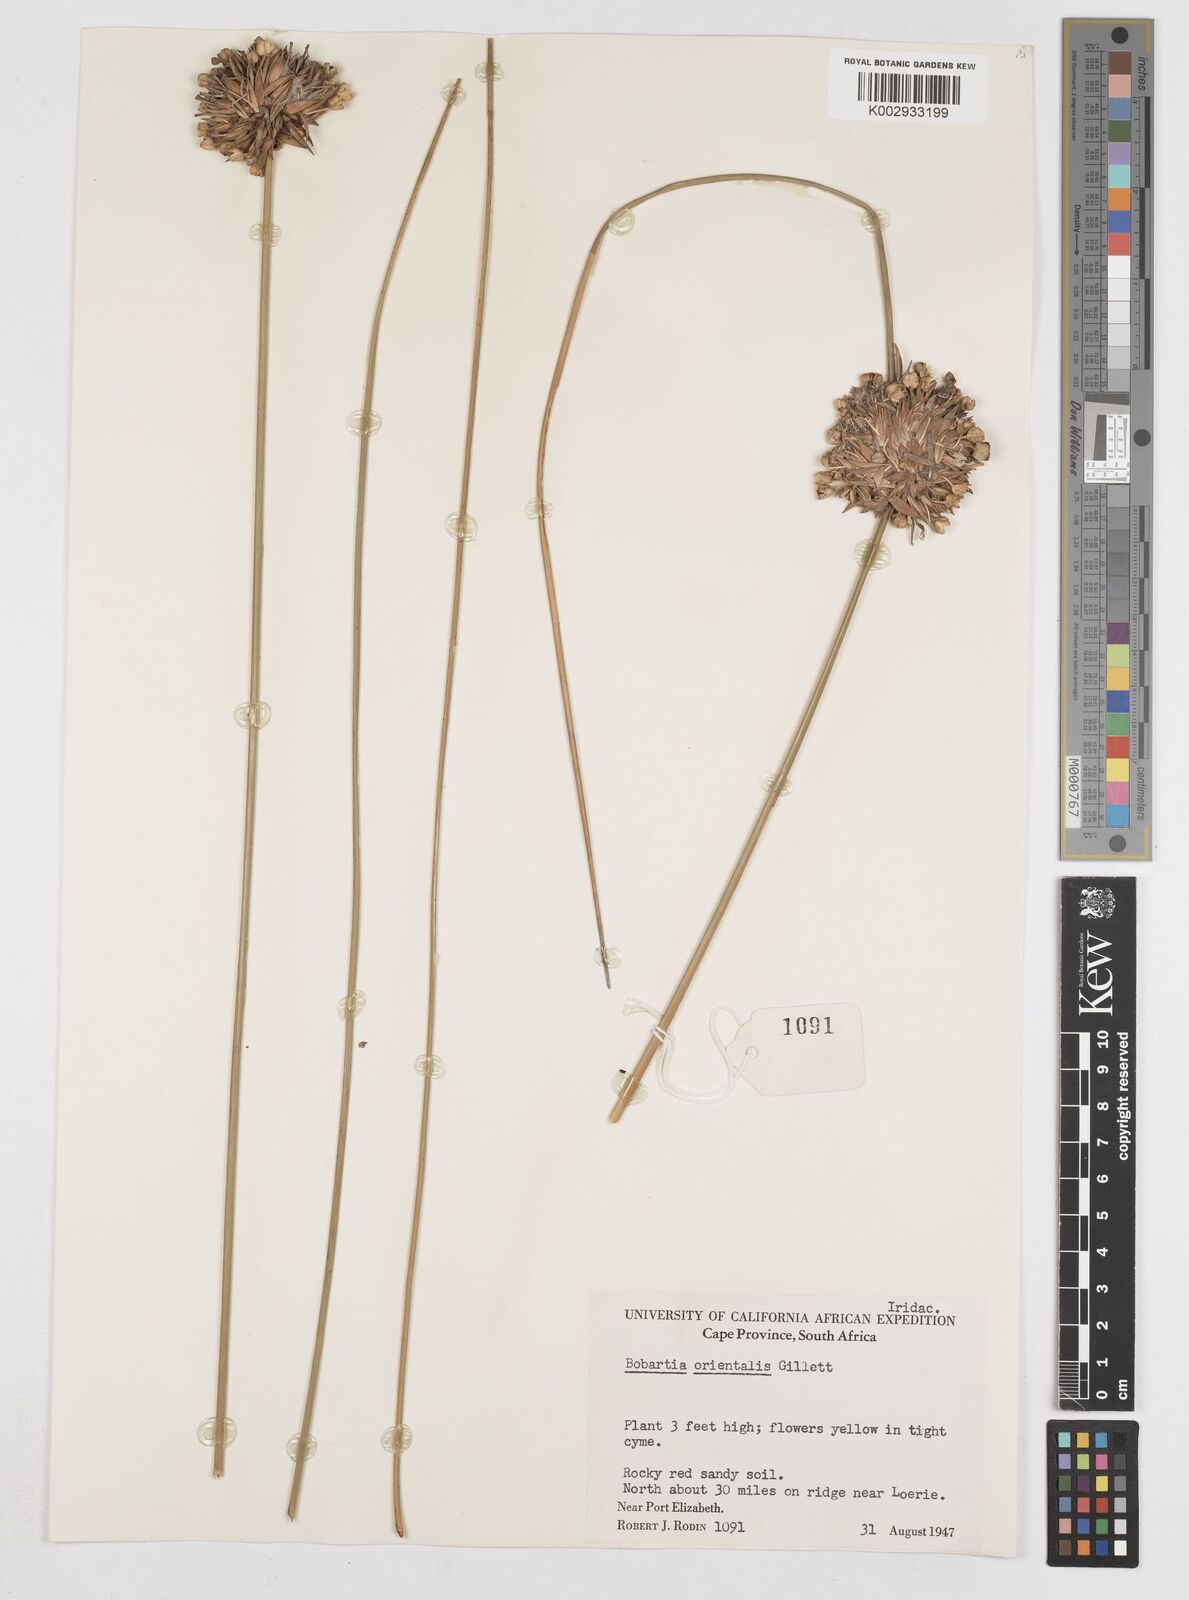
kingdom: Plantae
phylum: Tracheophyta
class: Liliopsida
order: Asparagales
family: Iridaceae
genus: Bobartia
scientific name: Bobartia orientalis
